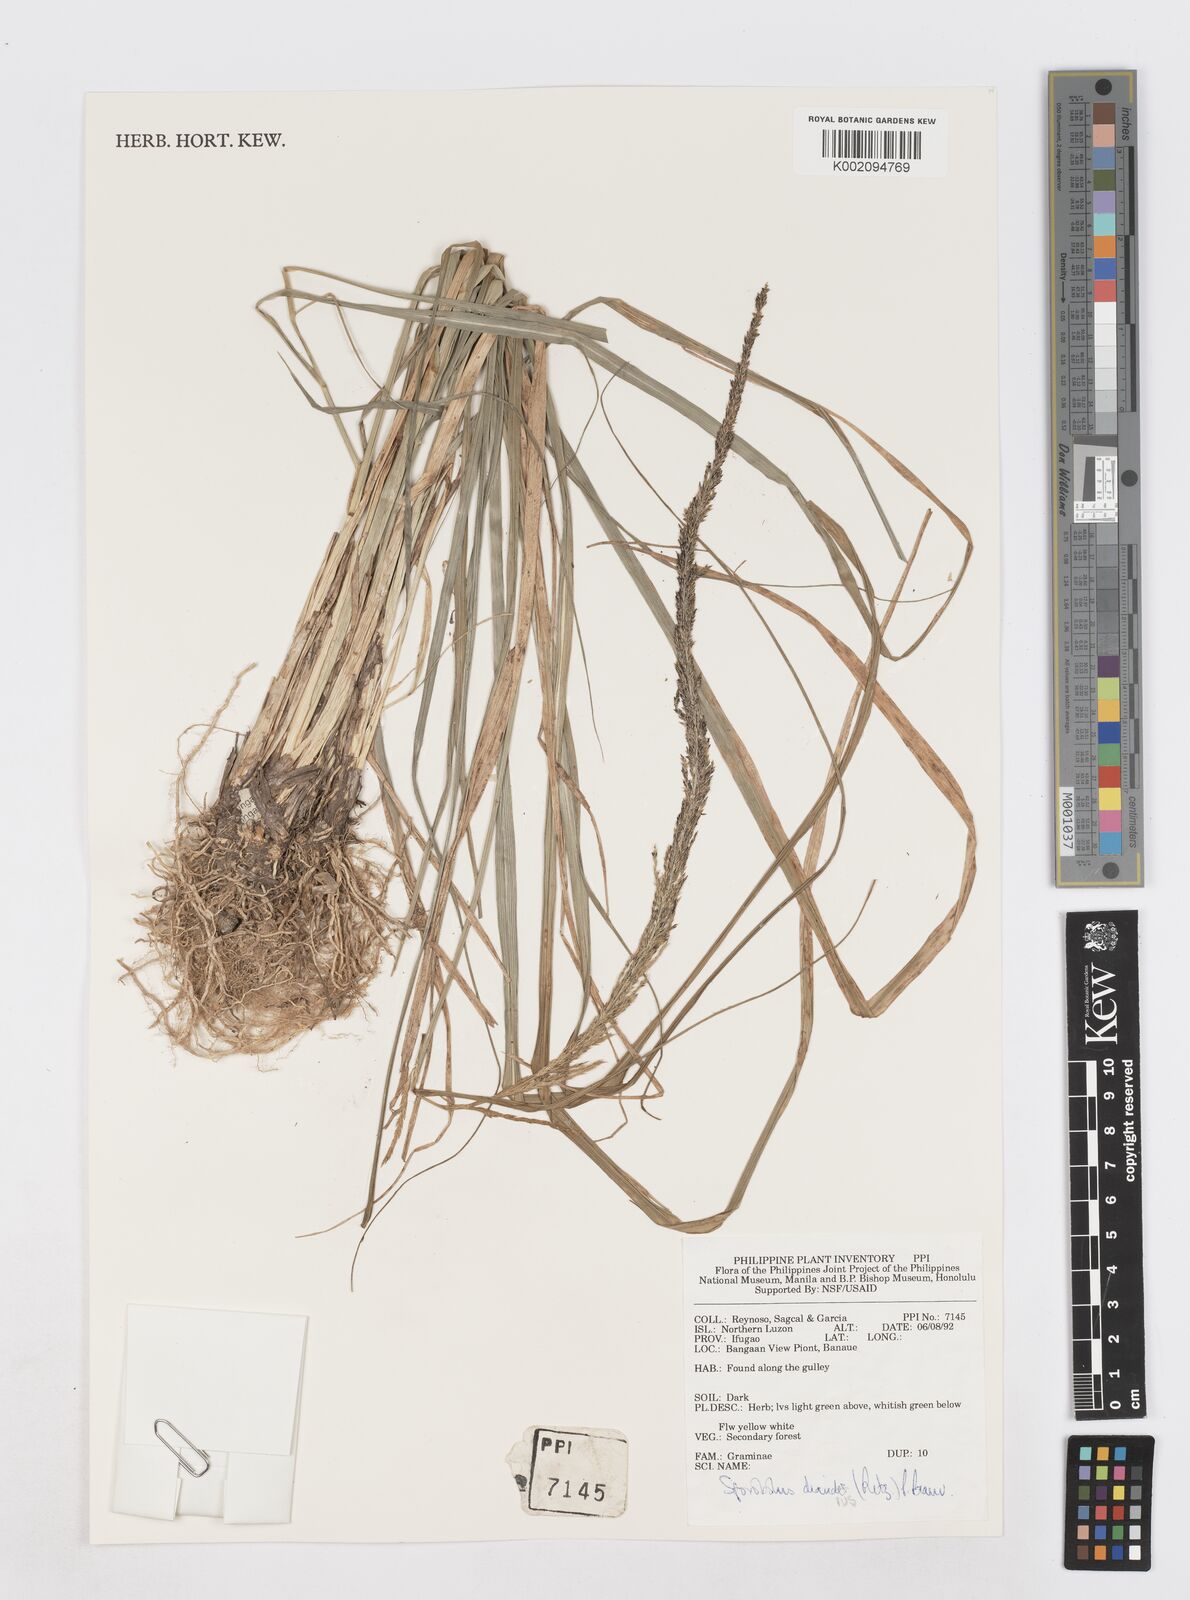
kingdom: Plantae
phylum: Tracheophyta
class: Liliopsida
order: Poales
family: Poaceae
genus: Sporobolus
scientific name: Sporobolus diandrus
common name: Tussock dropseed
